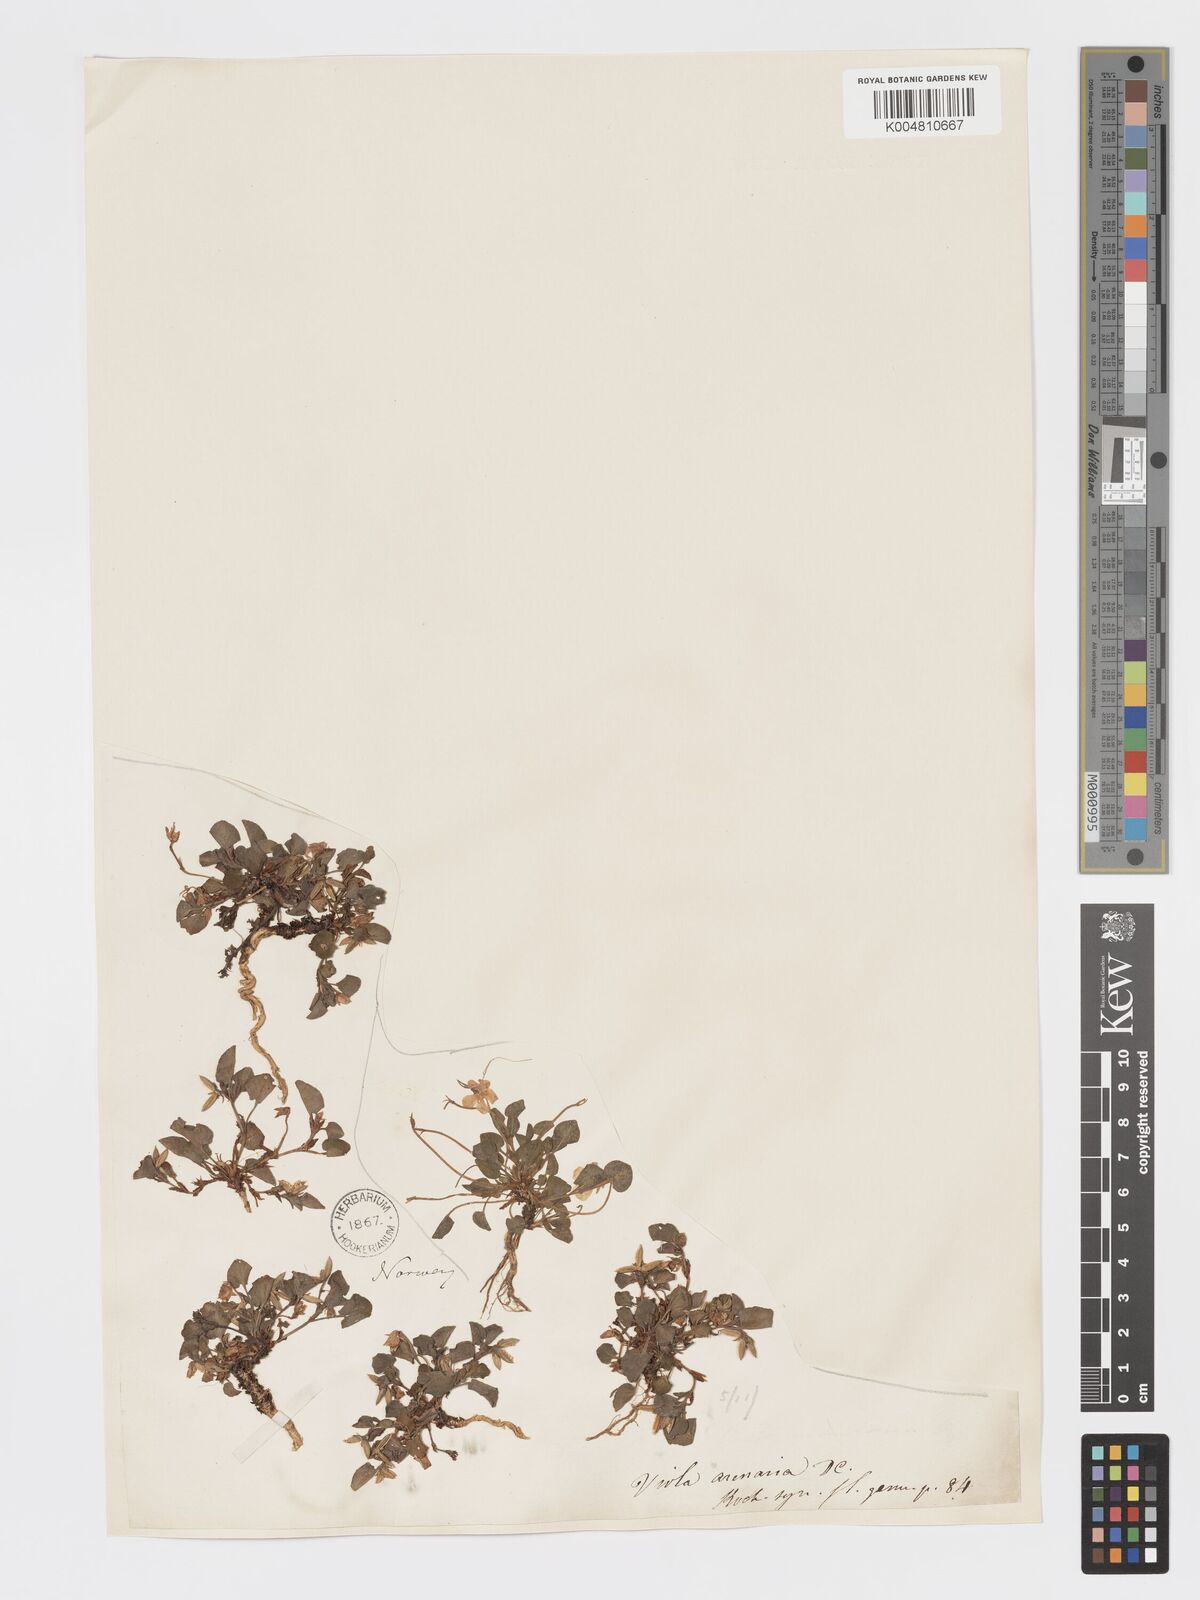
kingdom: Plantae
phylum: Tracheophyta
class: Magnoliopsida
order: Malpighiales
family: Violaceae
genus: Viola
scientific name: Viola rupestris
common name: Teesdale violet
